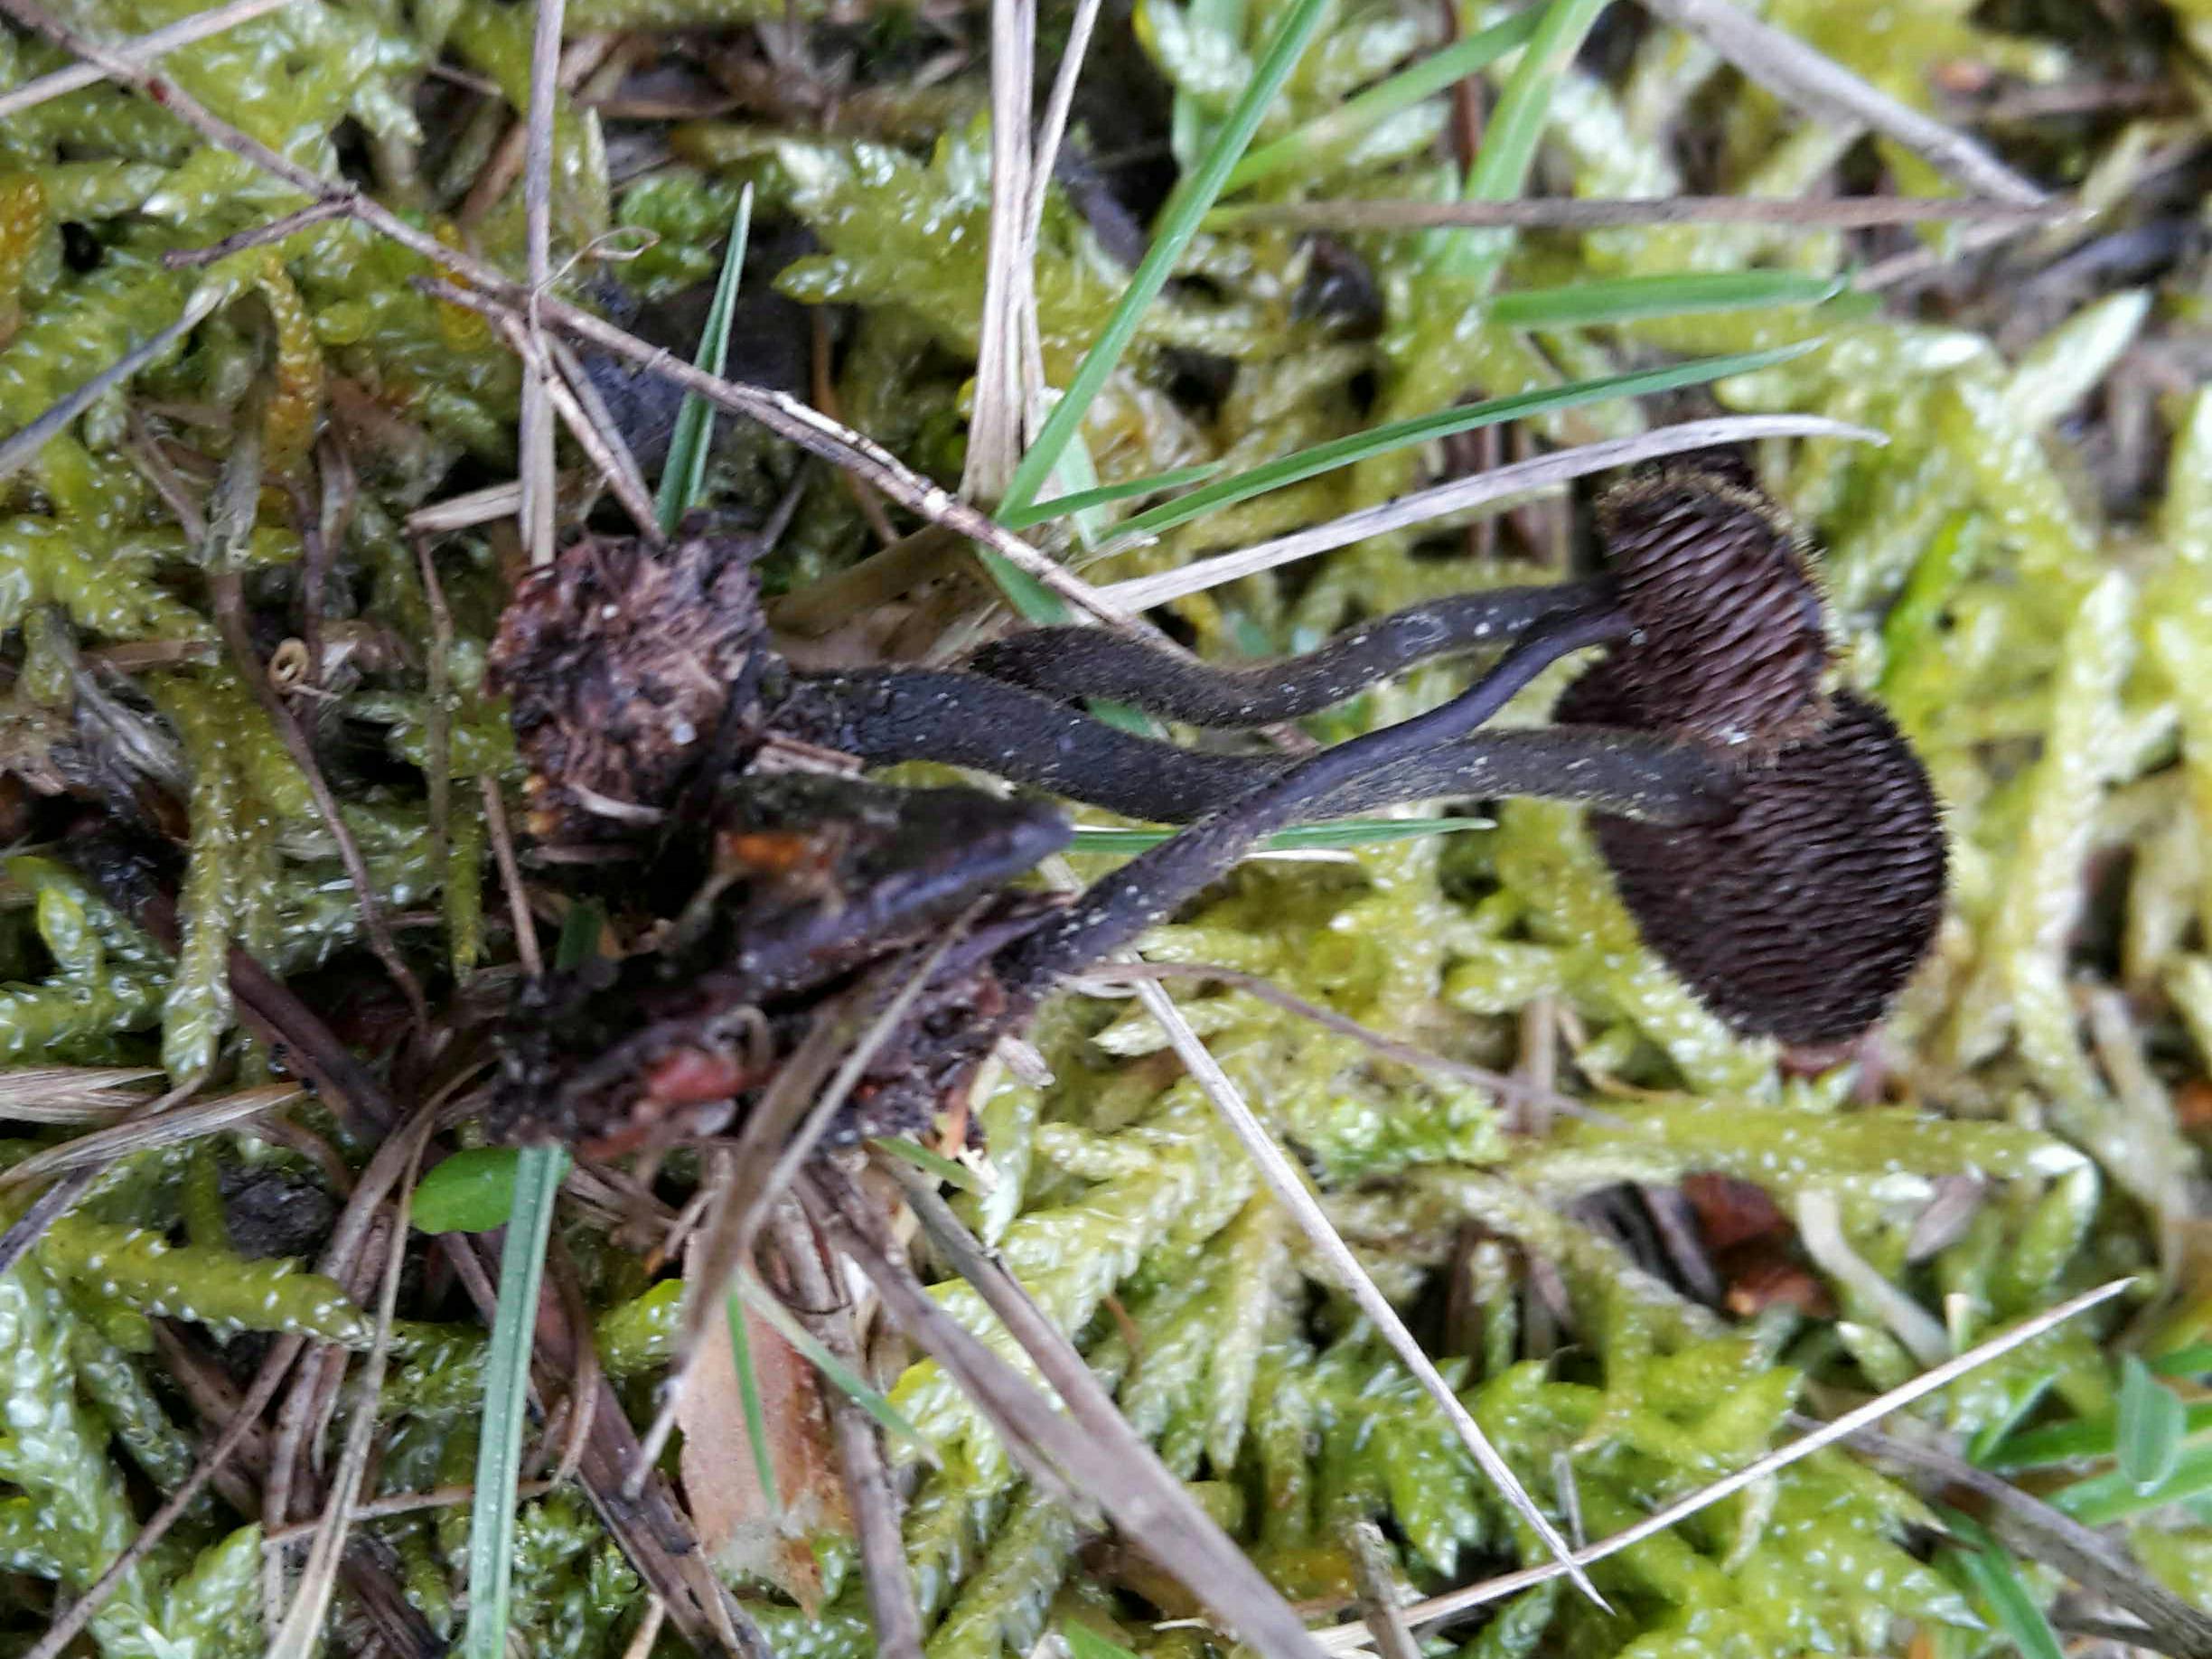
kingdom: Fungi
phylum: Basidiomycota
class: Agaricomycetes
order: Russulales
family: Auriscalpiaceae
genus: Auriscalpium
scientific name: Auriscalpium vulgare
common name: koglepigsvamp
